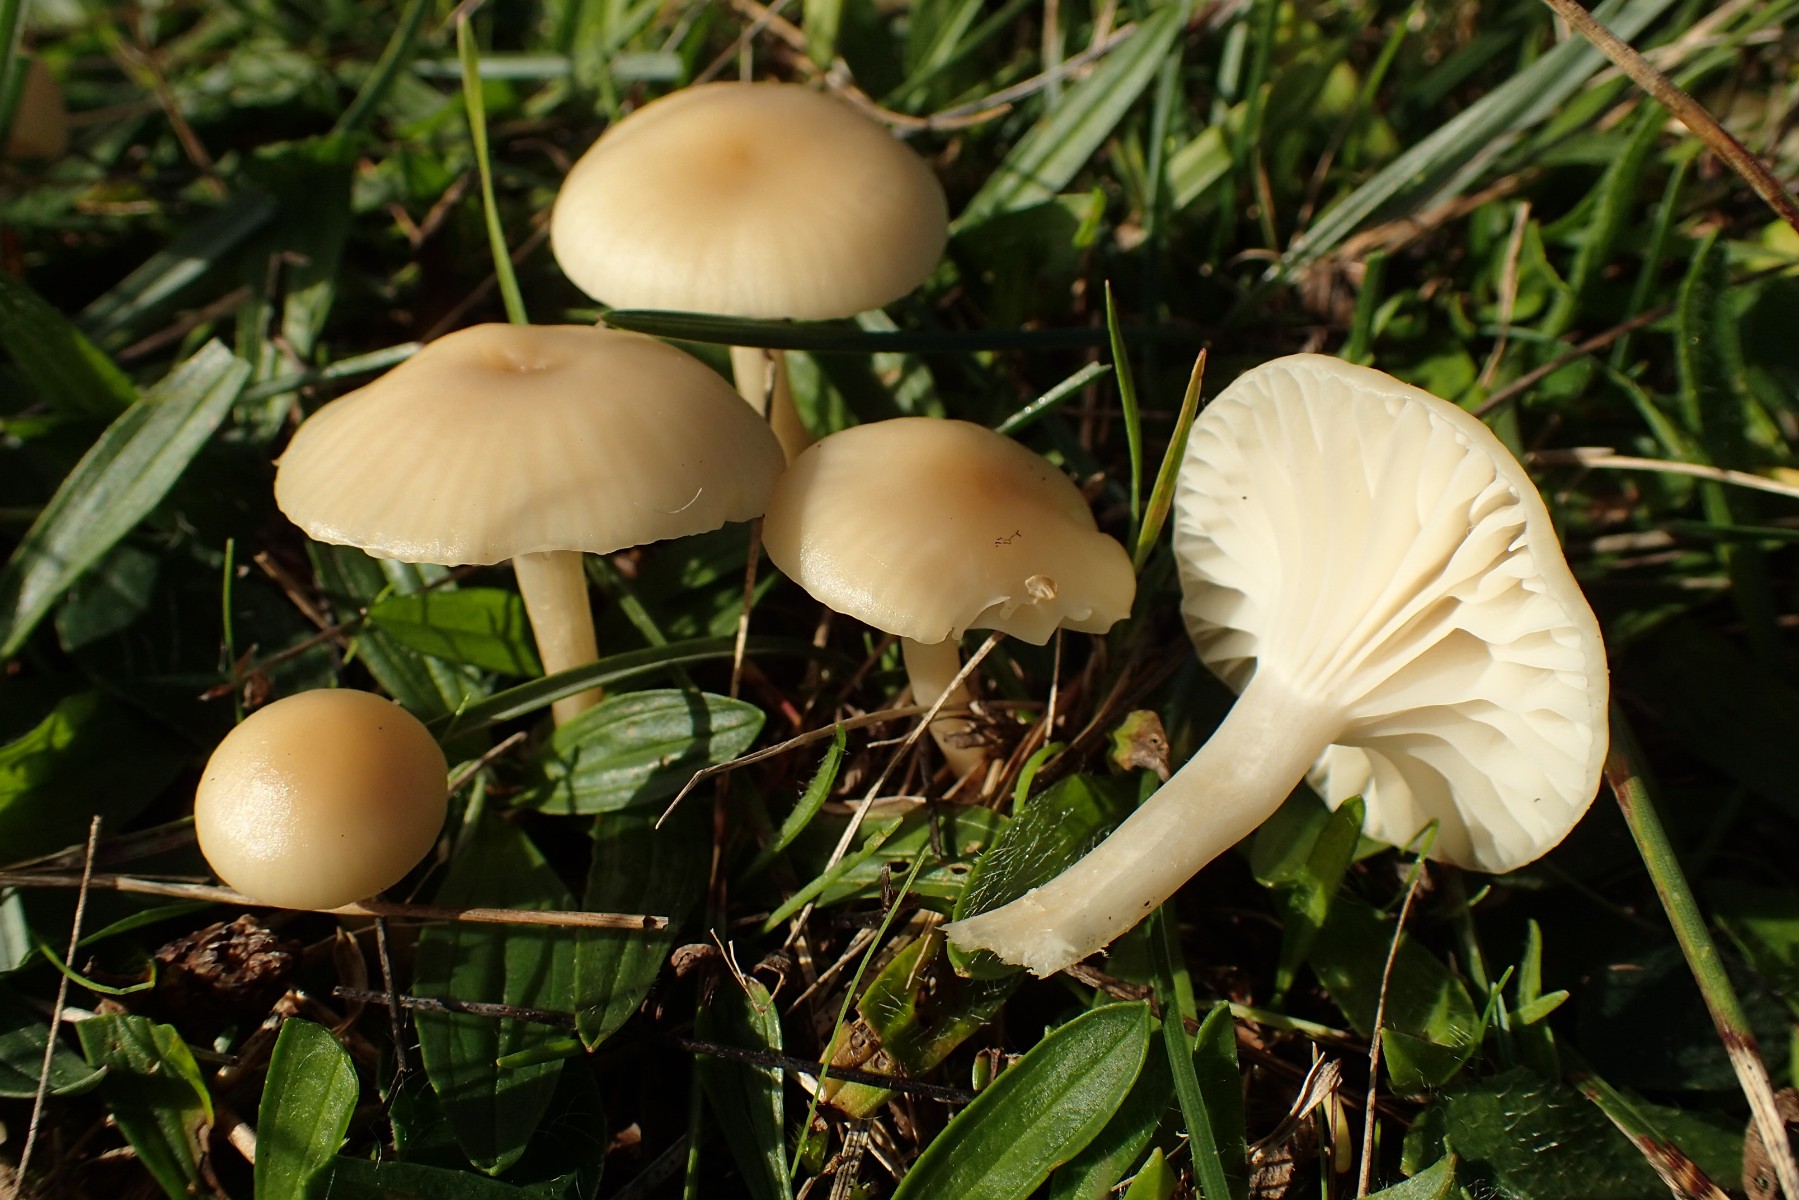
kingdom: Fungi
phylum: Basidiomycota
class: Agaricomycetes
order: Agaricales
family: Hygrophoraceae
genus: Cuphophyllus
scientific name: Cuphophyllus russocoriaceus
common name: ruslæder-vokshat
